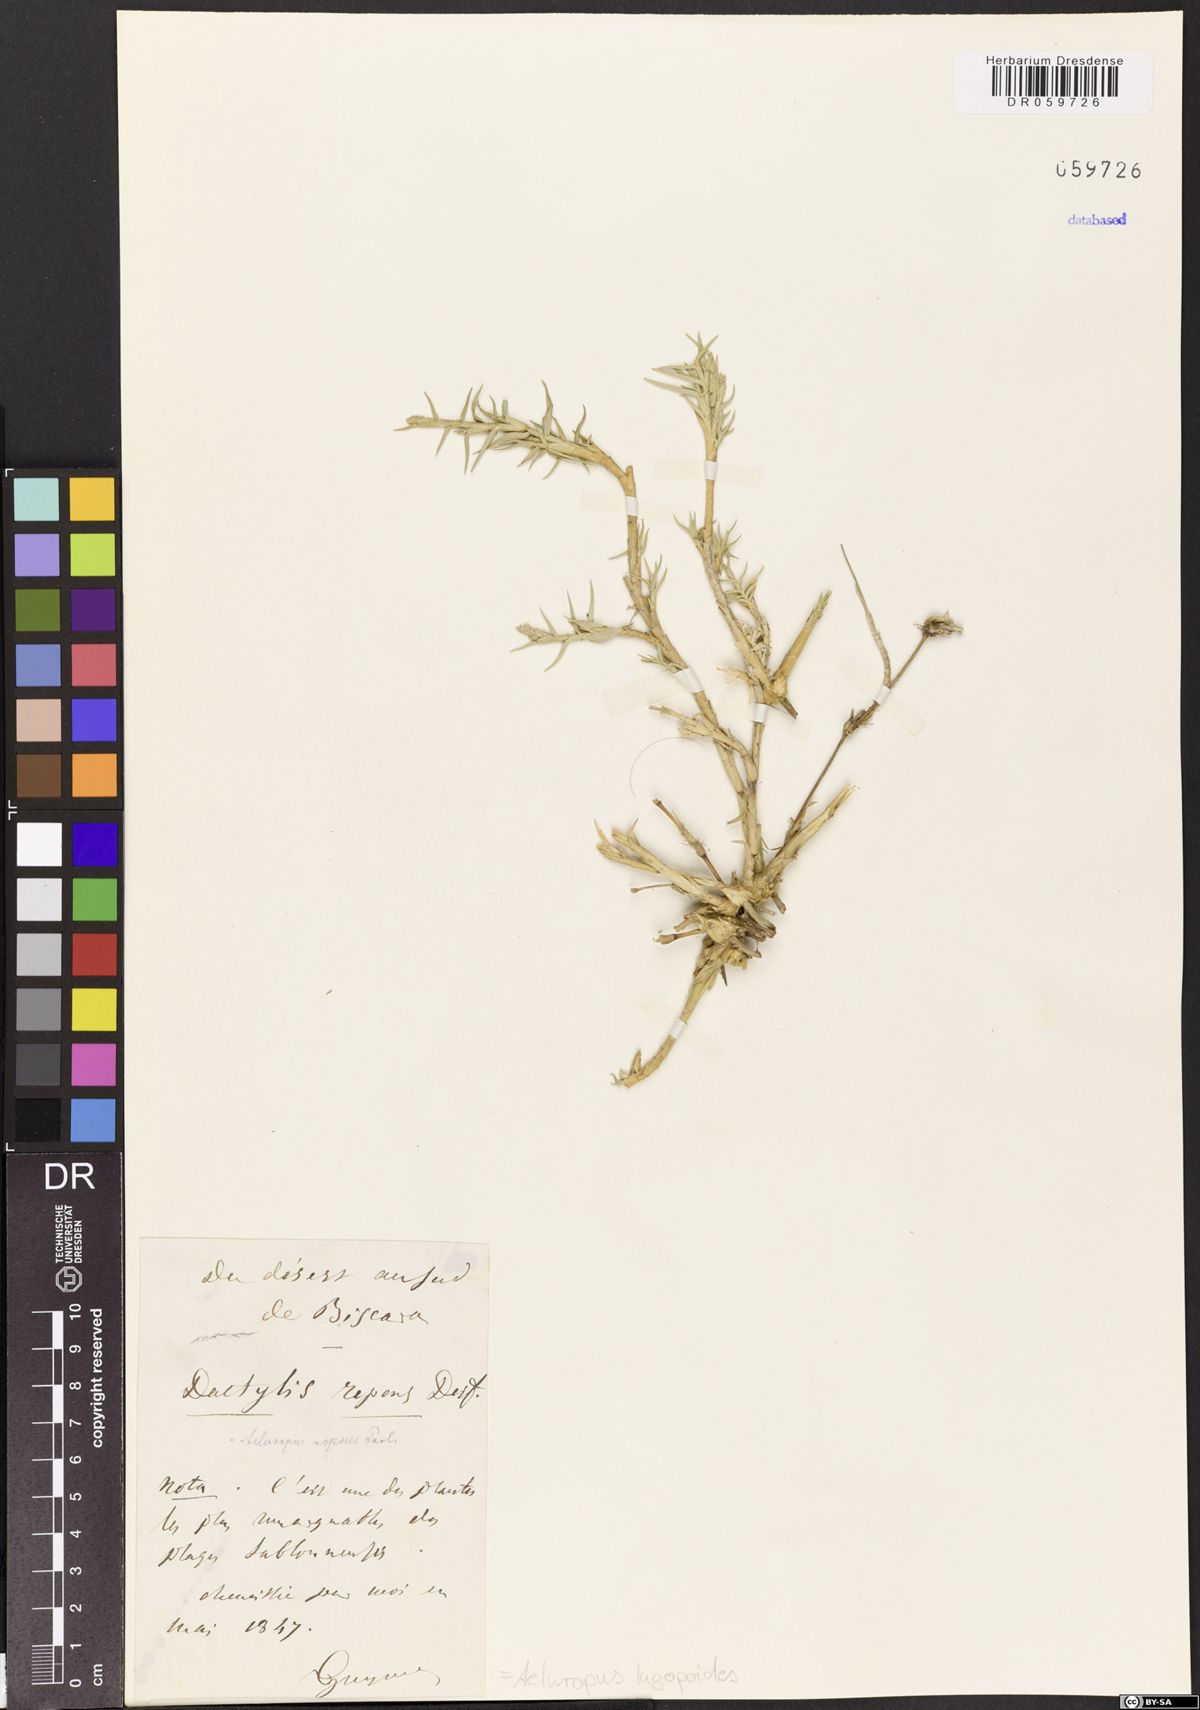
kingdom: Plantae
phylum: Tracheophyta
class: Liliopsida
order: Poales
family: Poaceae
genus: Aeluropus
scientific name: Aeluropus lagopoides
